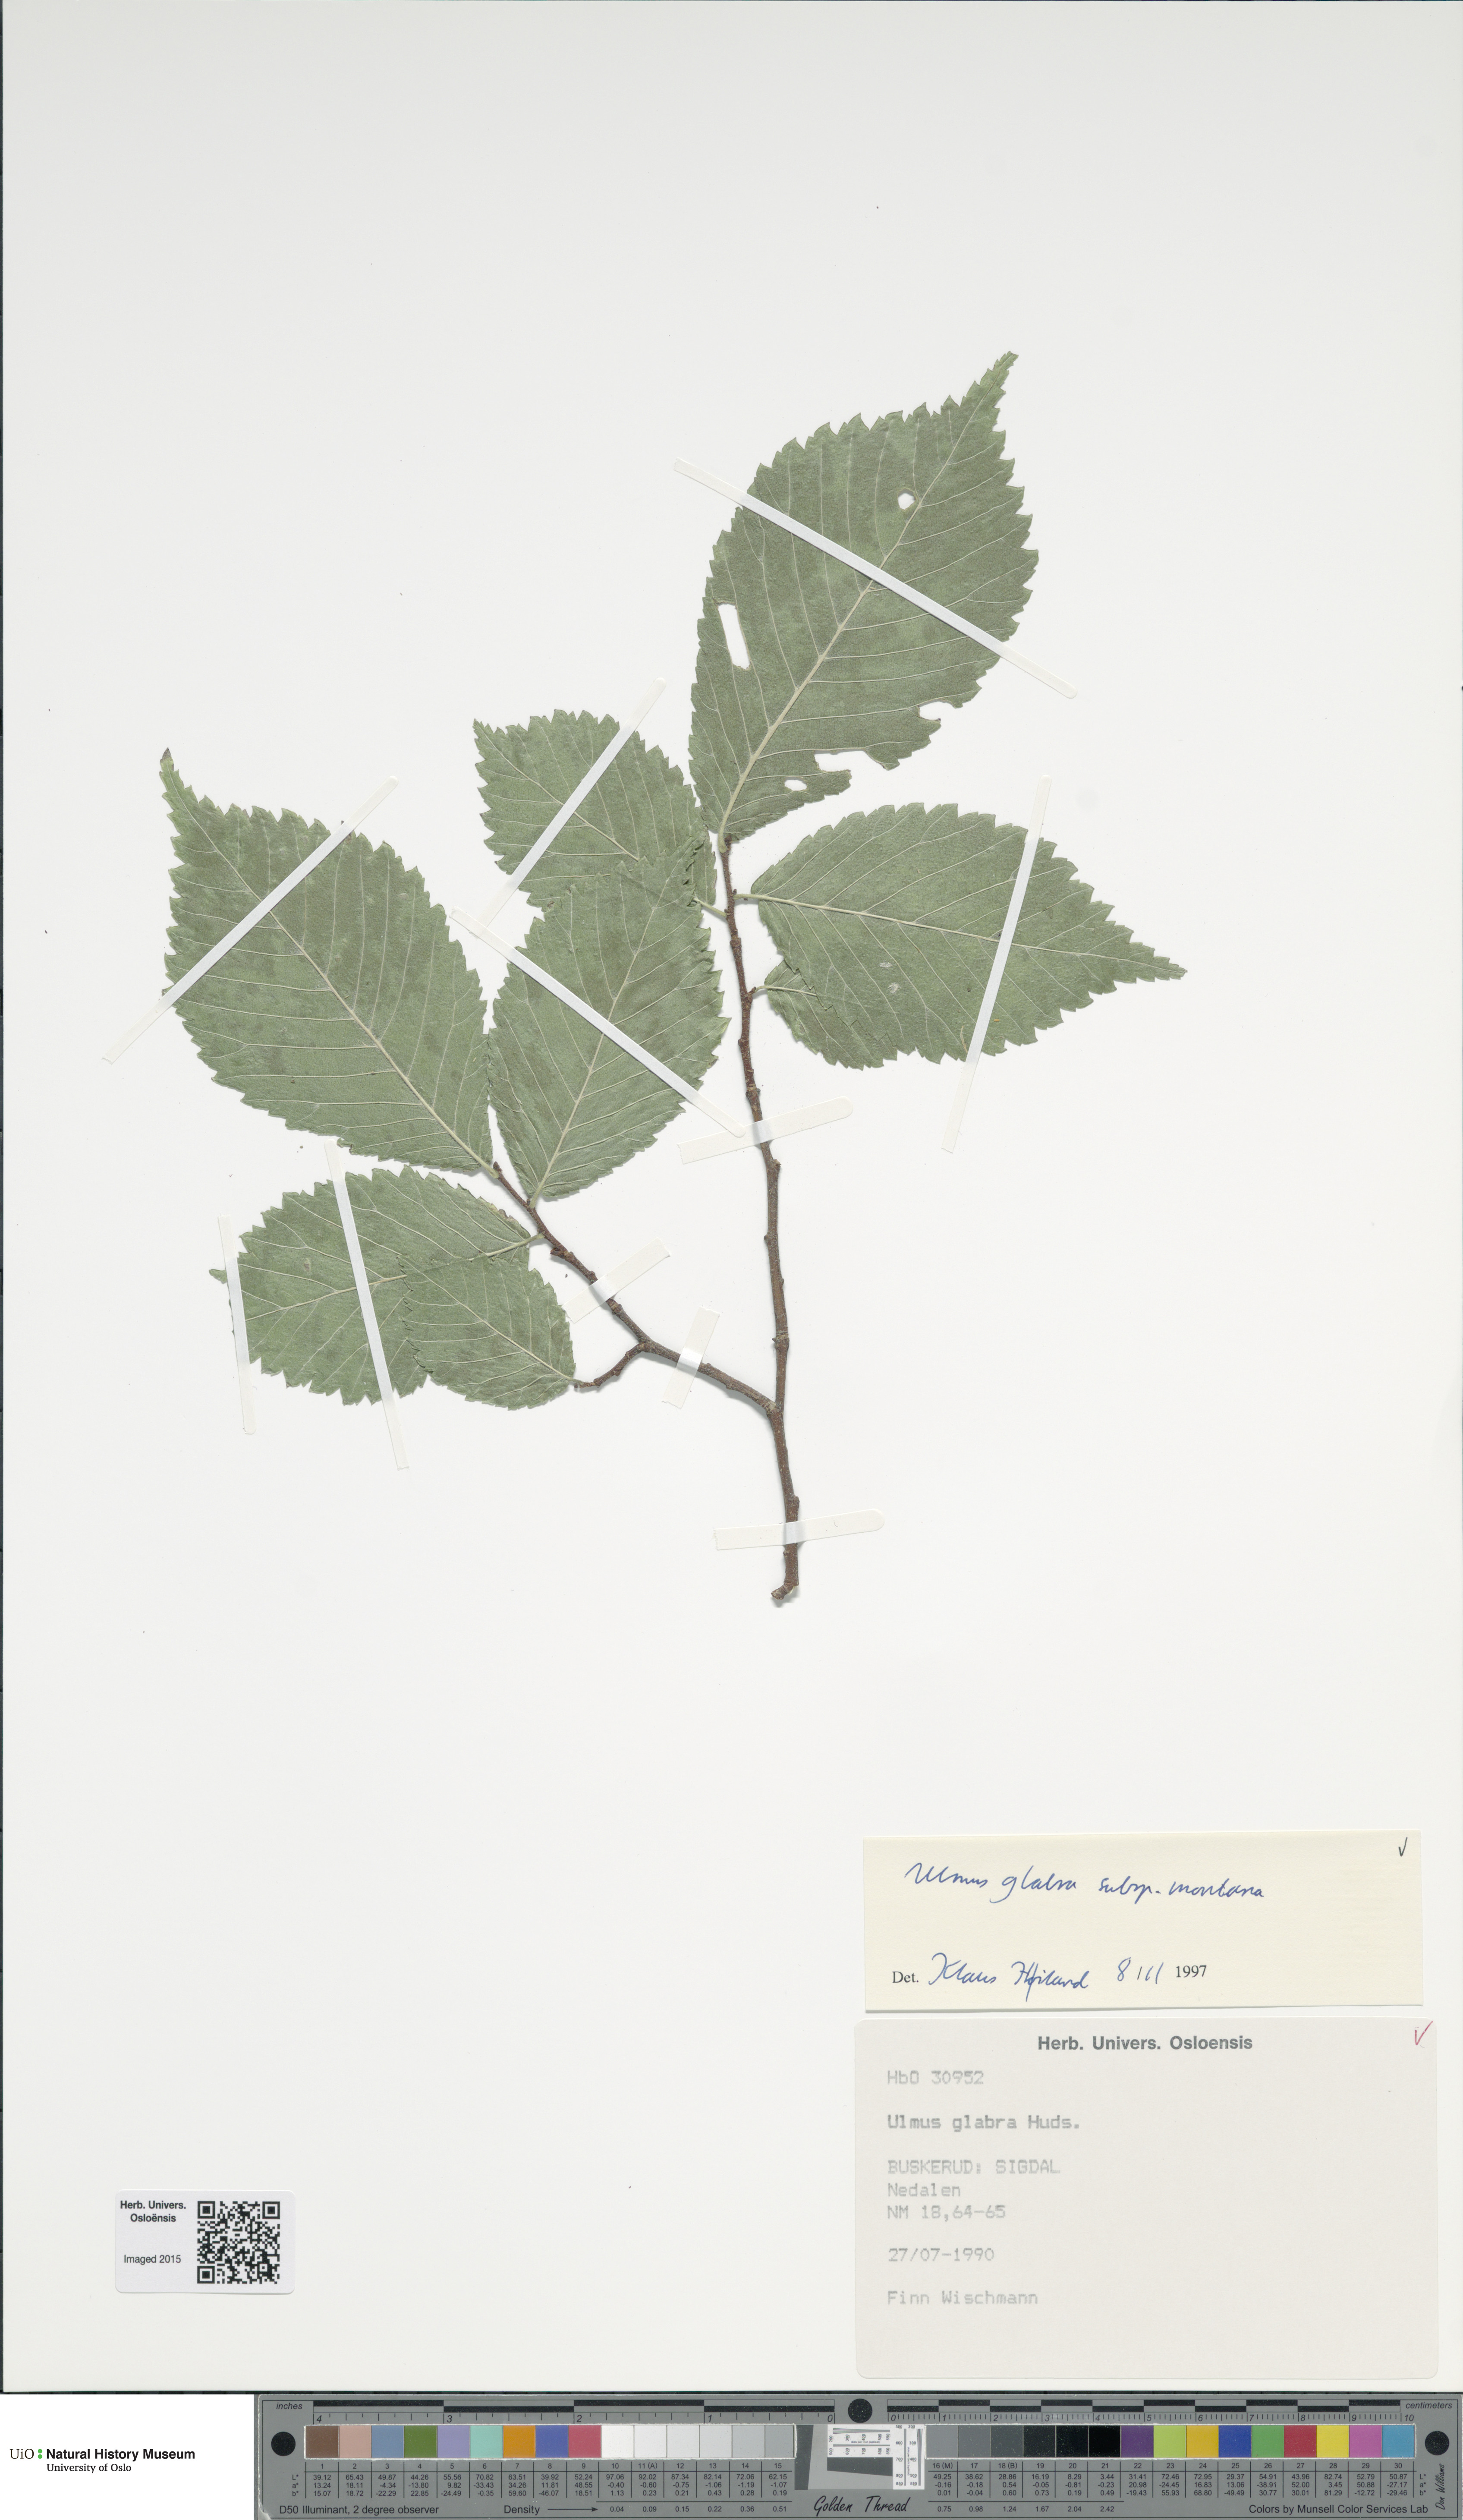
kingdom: Plantae
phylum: Tracheophyta
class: Magnoliopsida
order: Rosales
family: Ulmaceae
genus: Ulmus
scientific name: Ulmus glabra
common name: Wych elm
